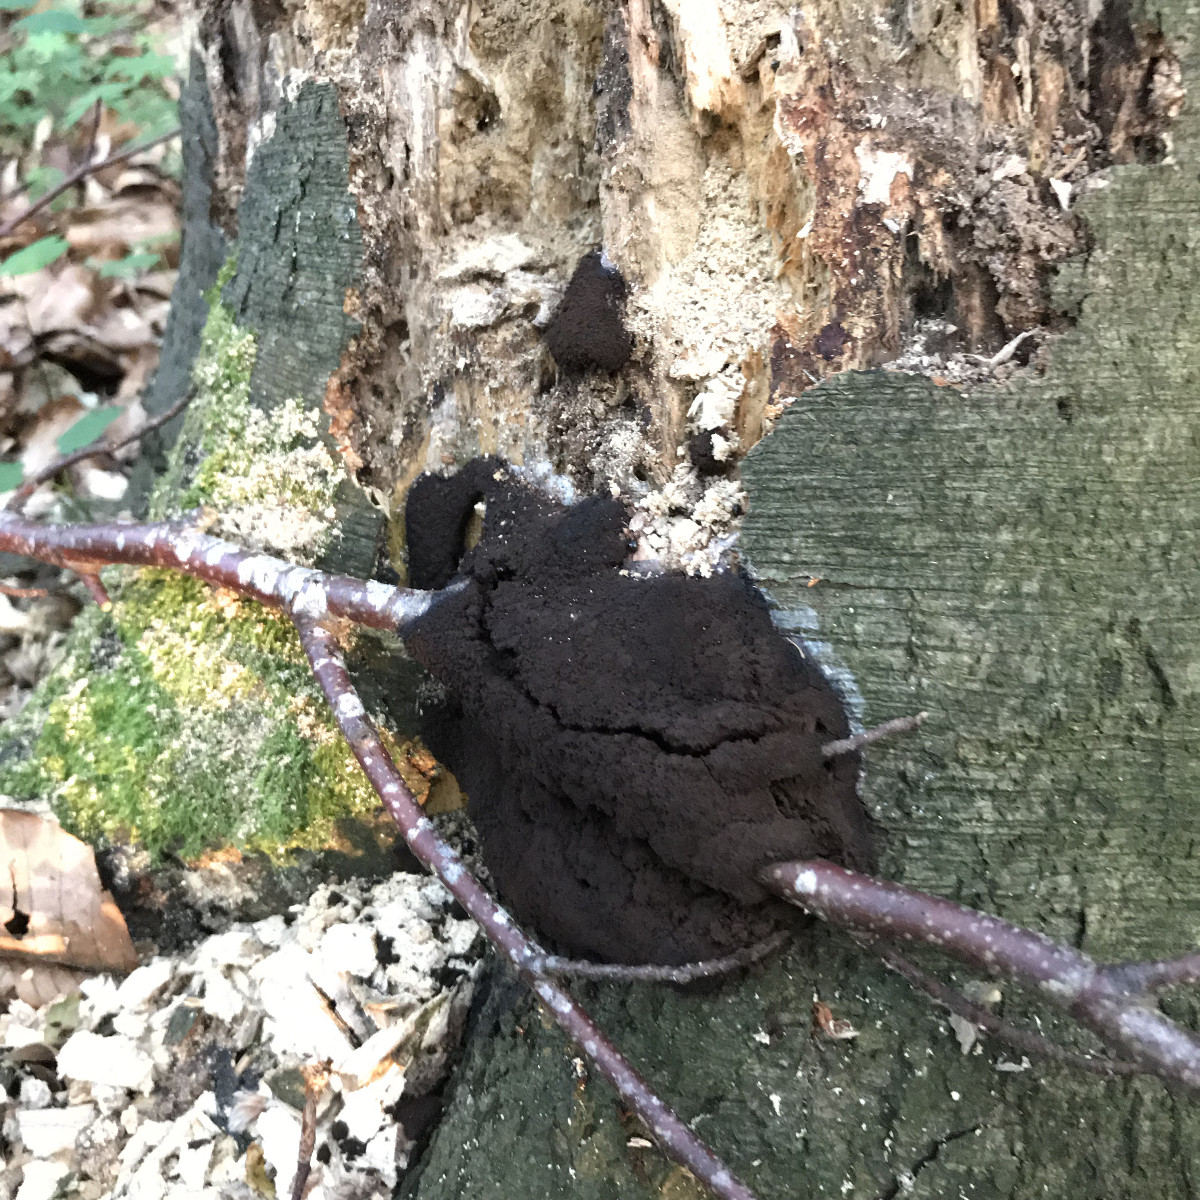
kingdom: Protozoa
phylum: Mycetozoa
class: Myxomycetes
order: Stemonitidales
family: Stemonitidaceae
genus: Brefeldia
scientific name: Brefeldia maxima
